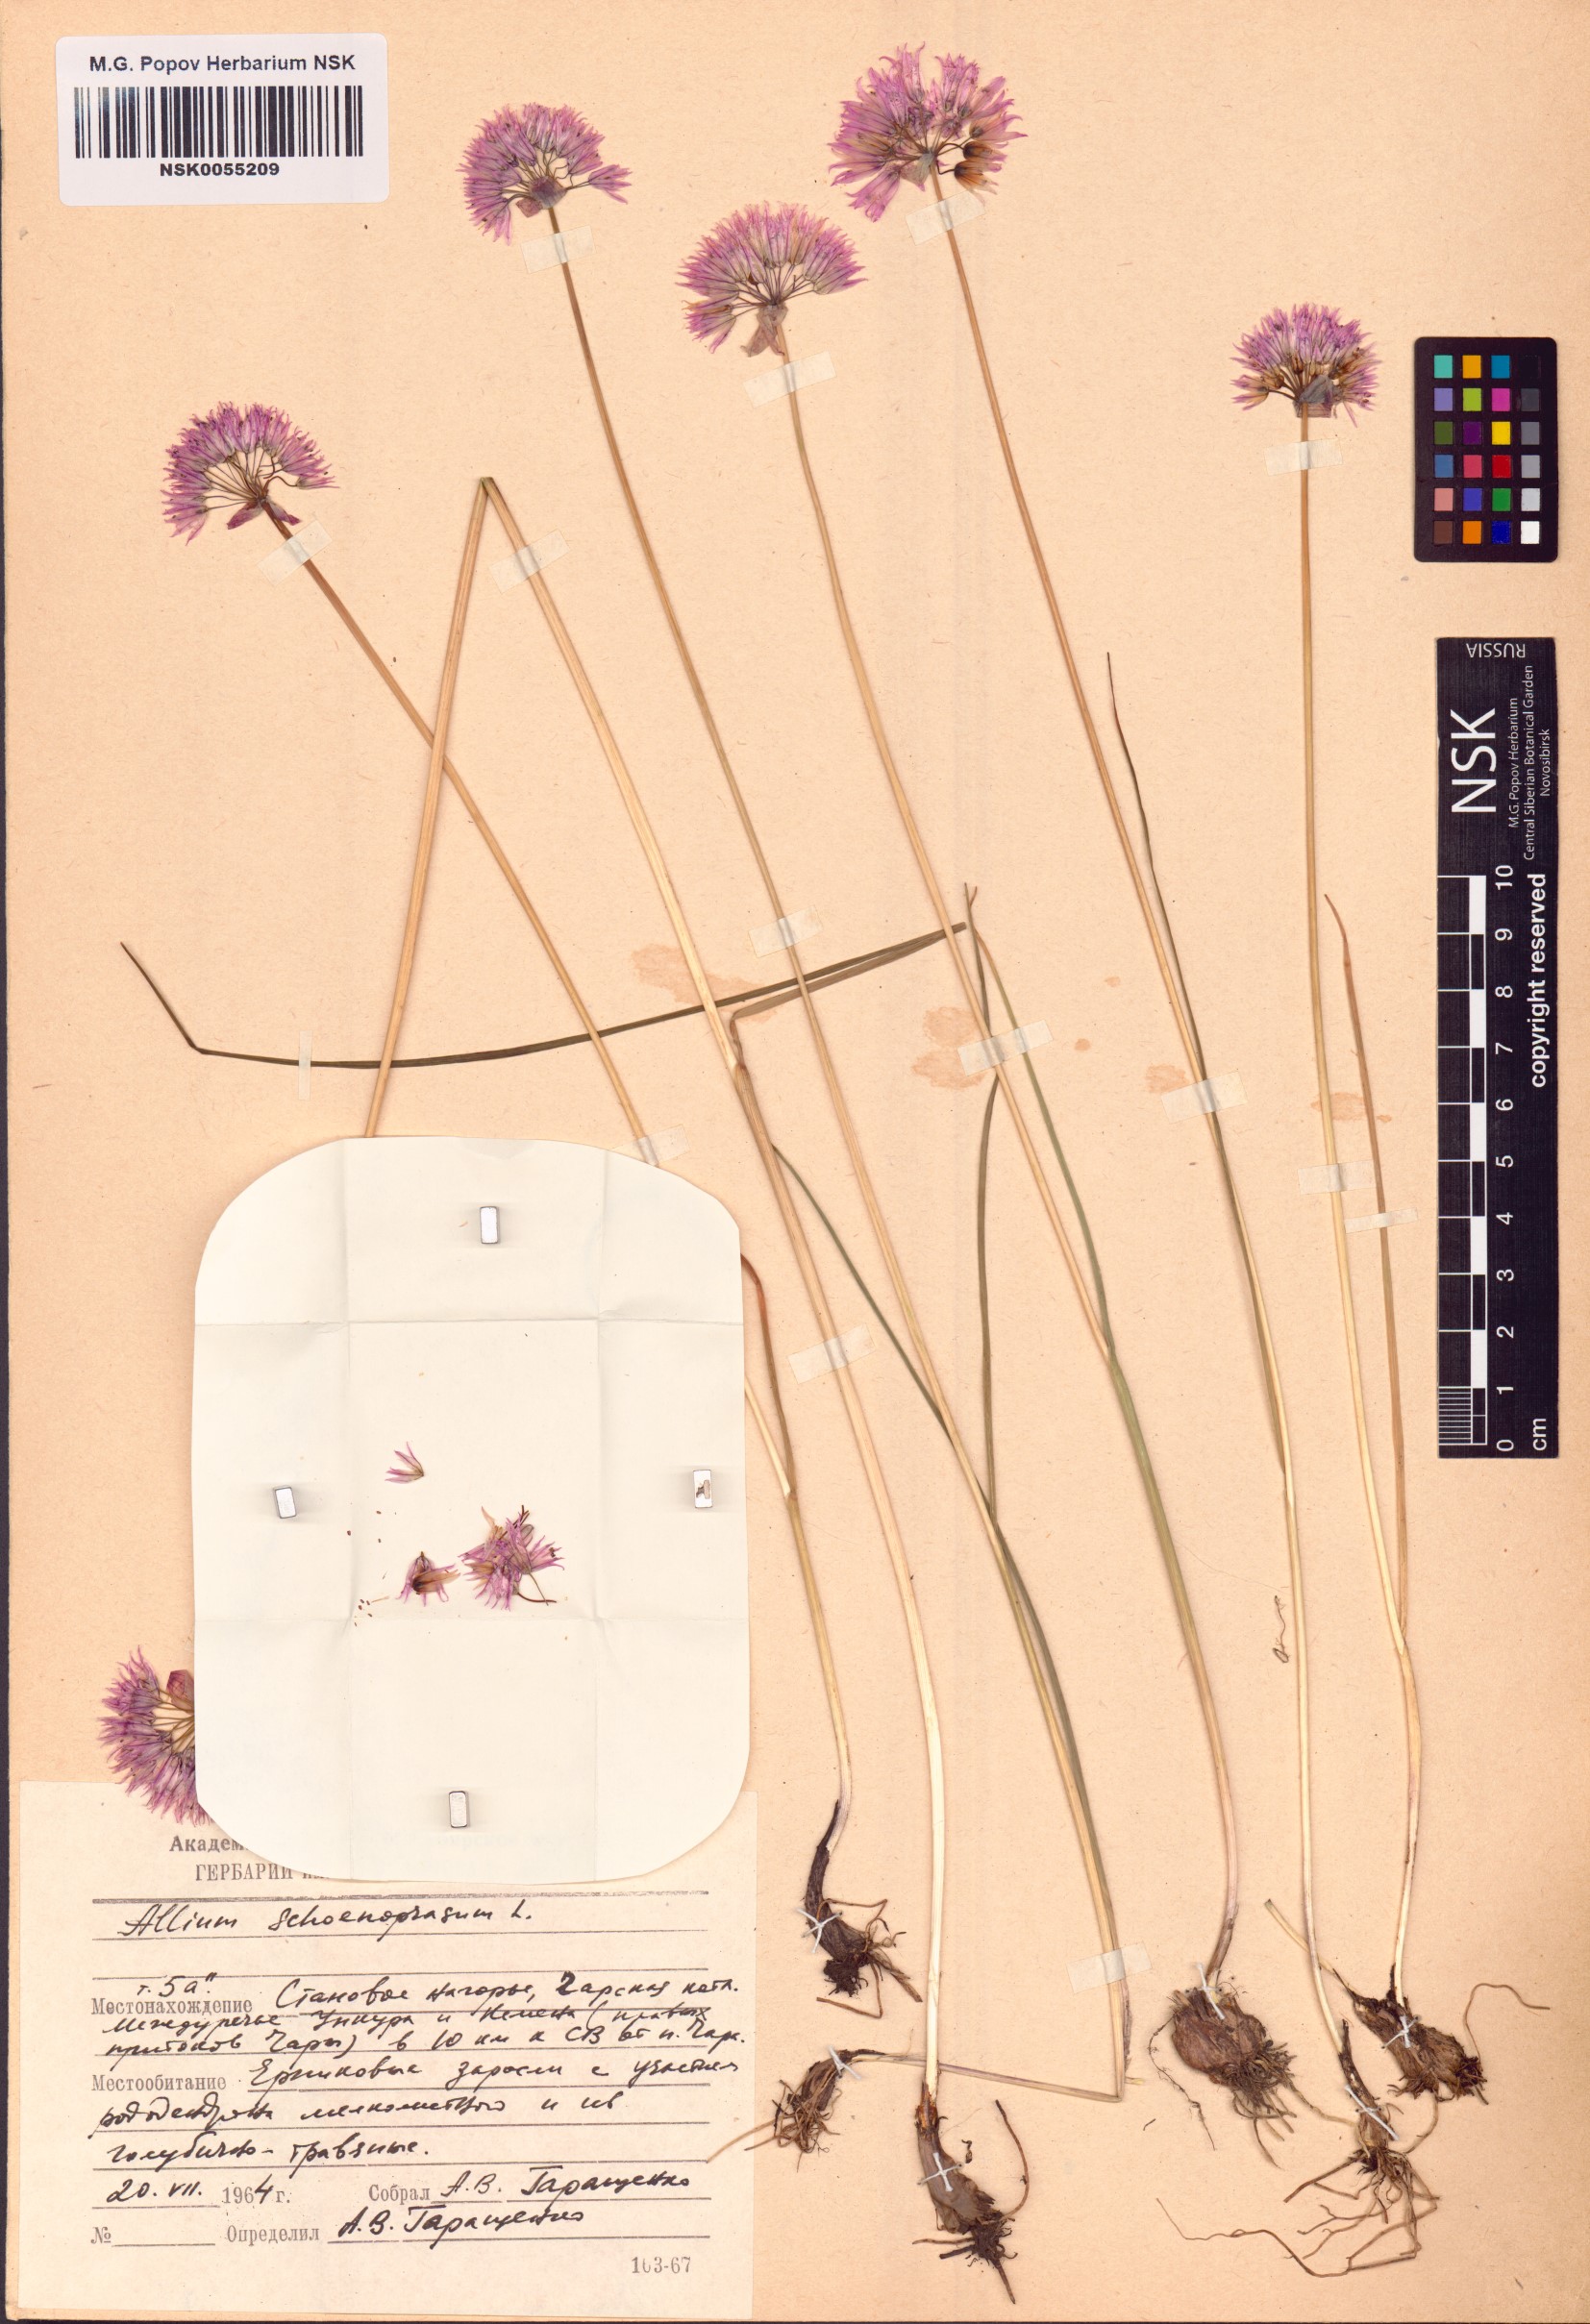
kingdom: Plantae
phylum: Tracheophyta
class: Liliopsida
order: Asparagales
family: Amaryllidaceae
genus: Allium
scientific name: Allium schoenoprasum
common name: Chives
